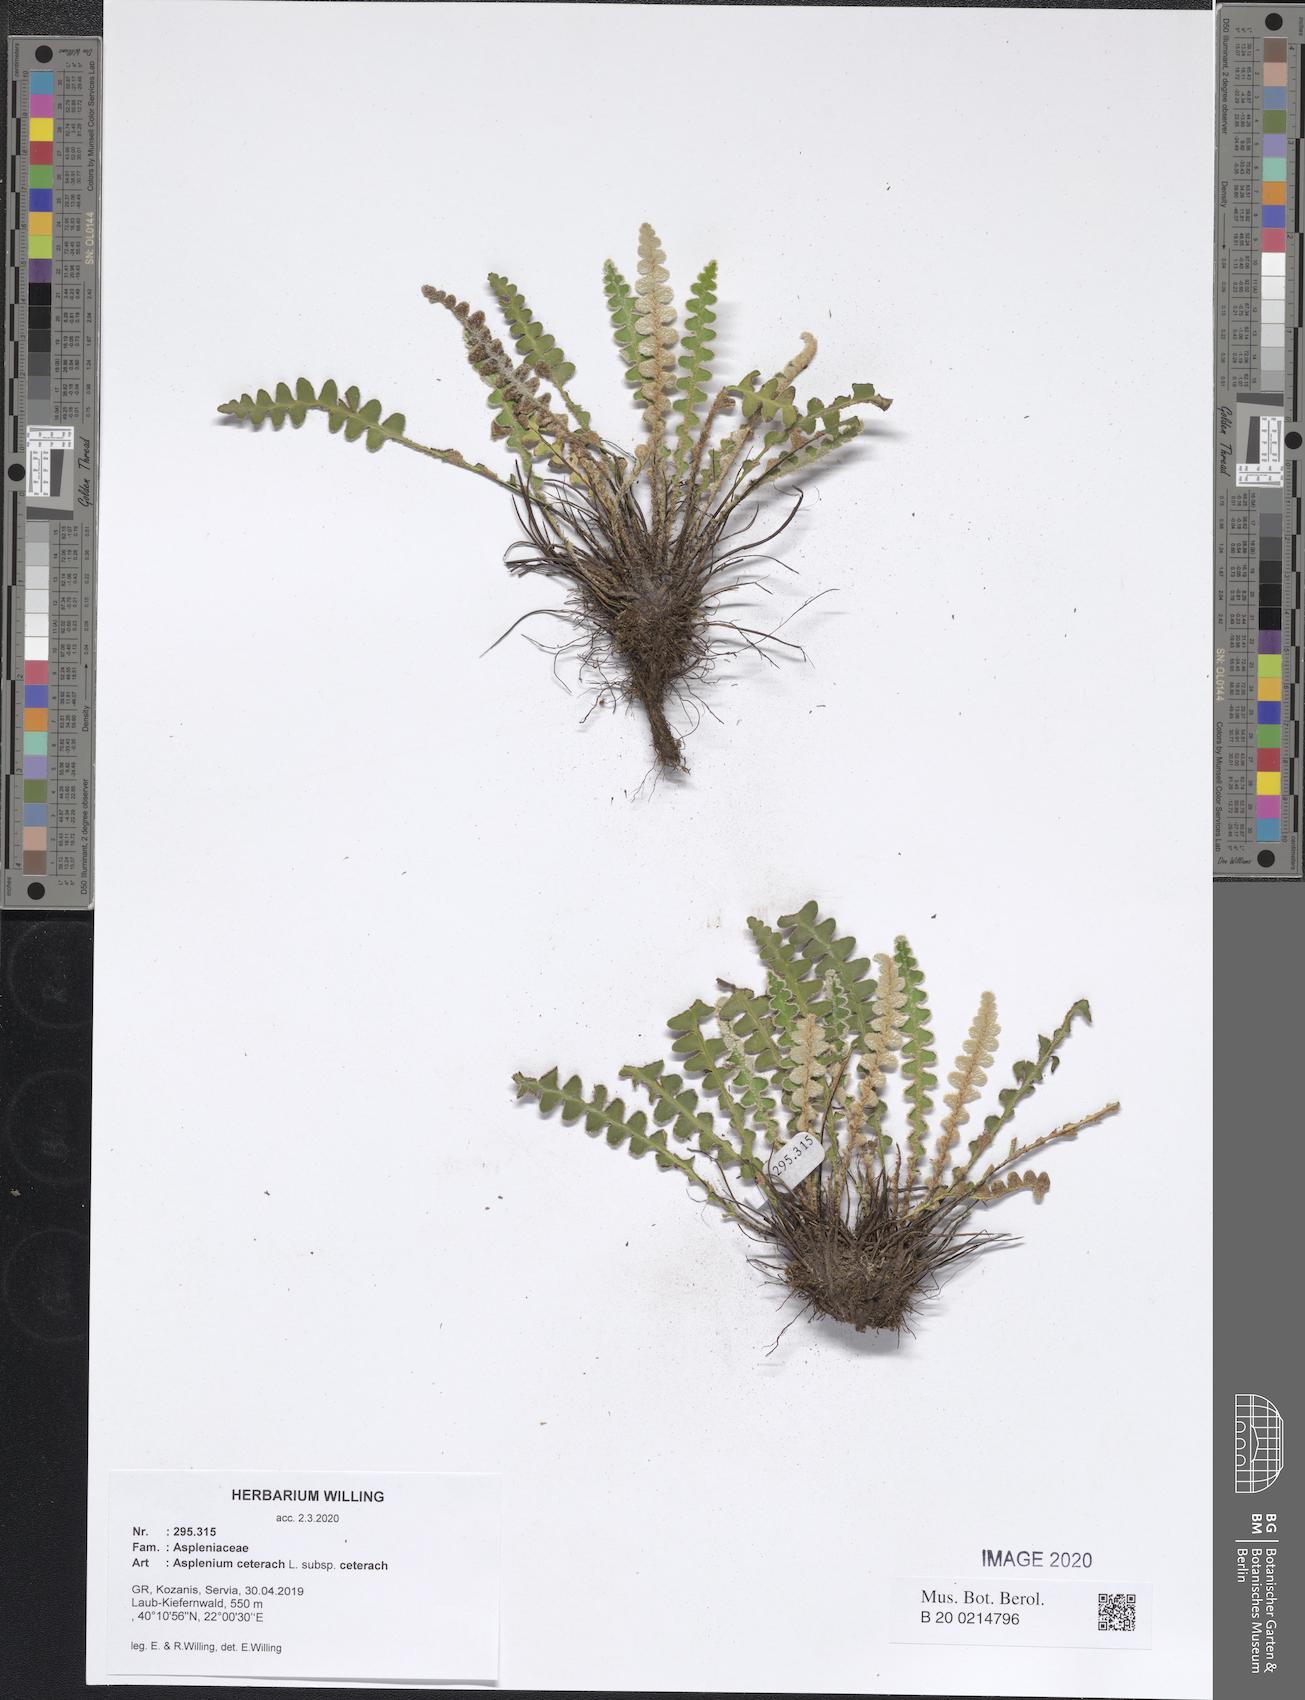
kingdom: Plantae
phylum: Tracheophyta
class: Polypodiopsida
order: Polypodiales
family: Aspleniaceae
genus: Asplenium
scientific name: Asplenium ceterach
